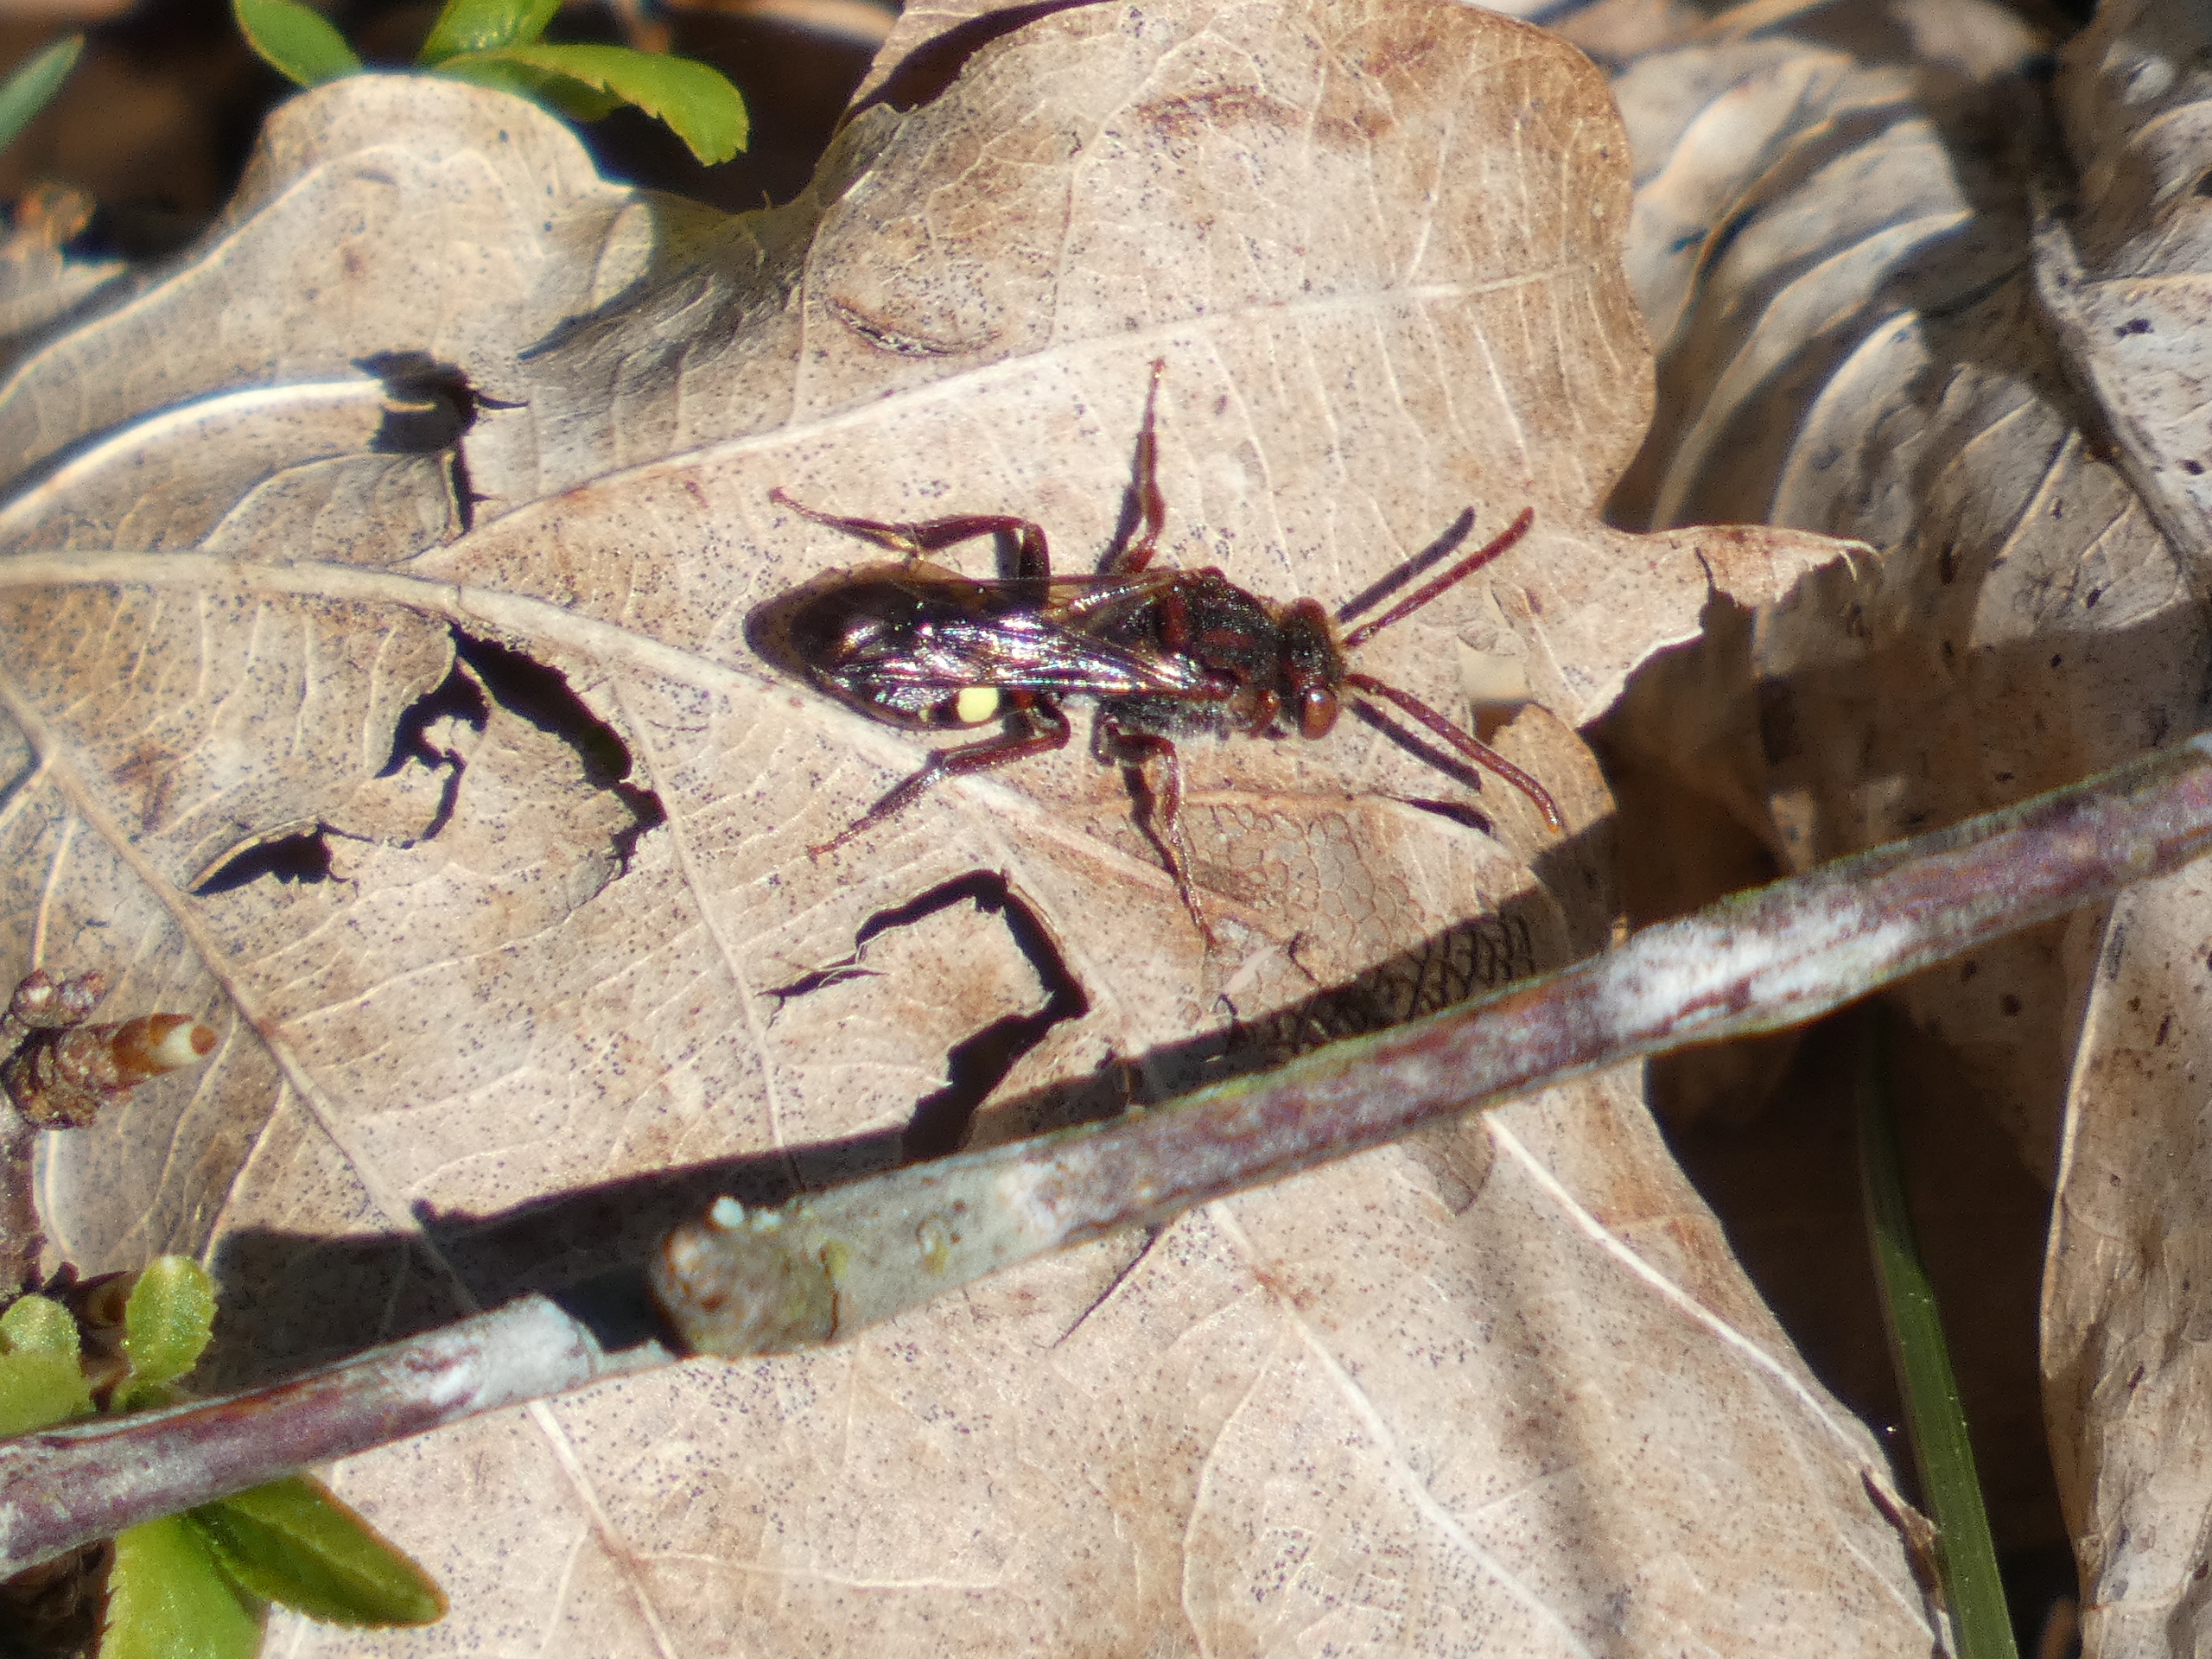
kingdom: Animalia
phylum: Arthropoda
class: Insecta
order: Hymenoptera
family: Apidae
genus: Nomada
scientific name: Nomada
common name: Hvepsebier
